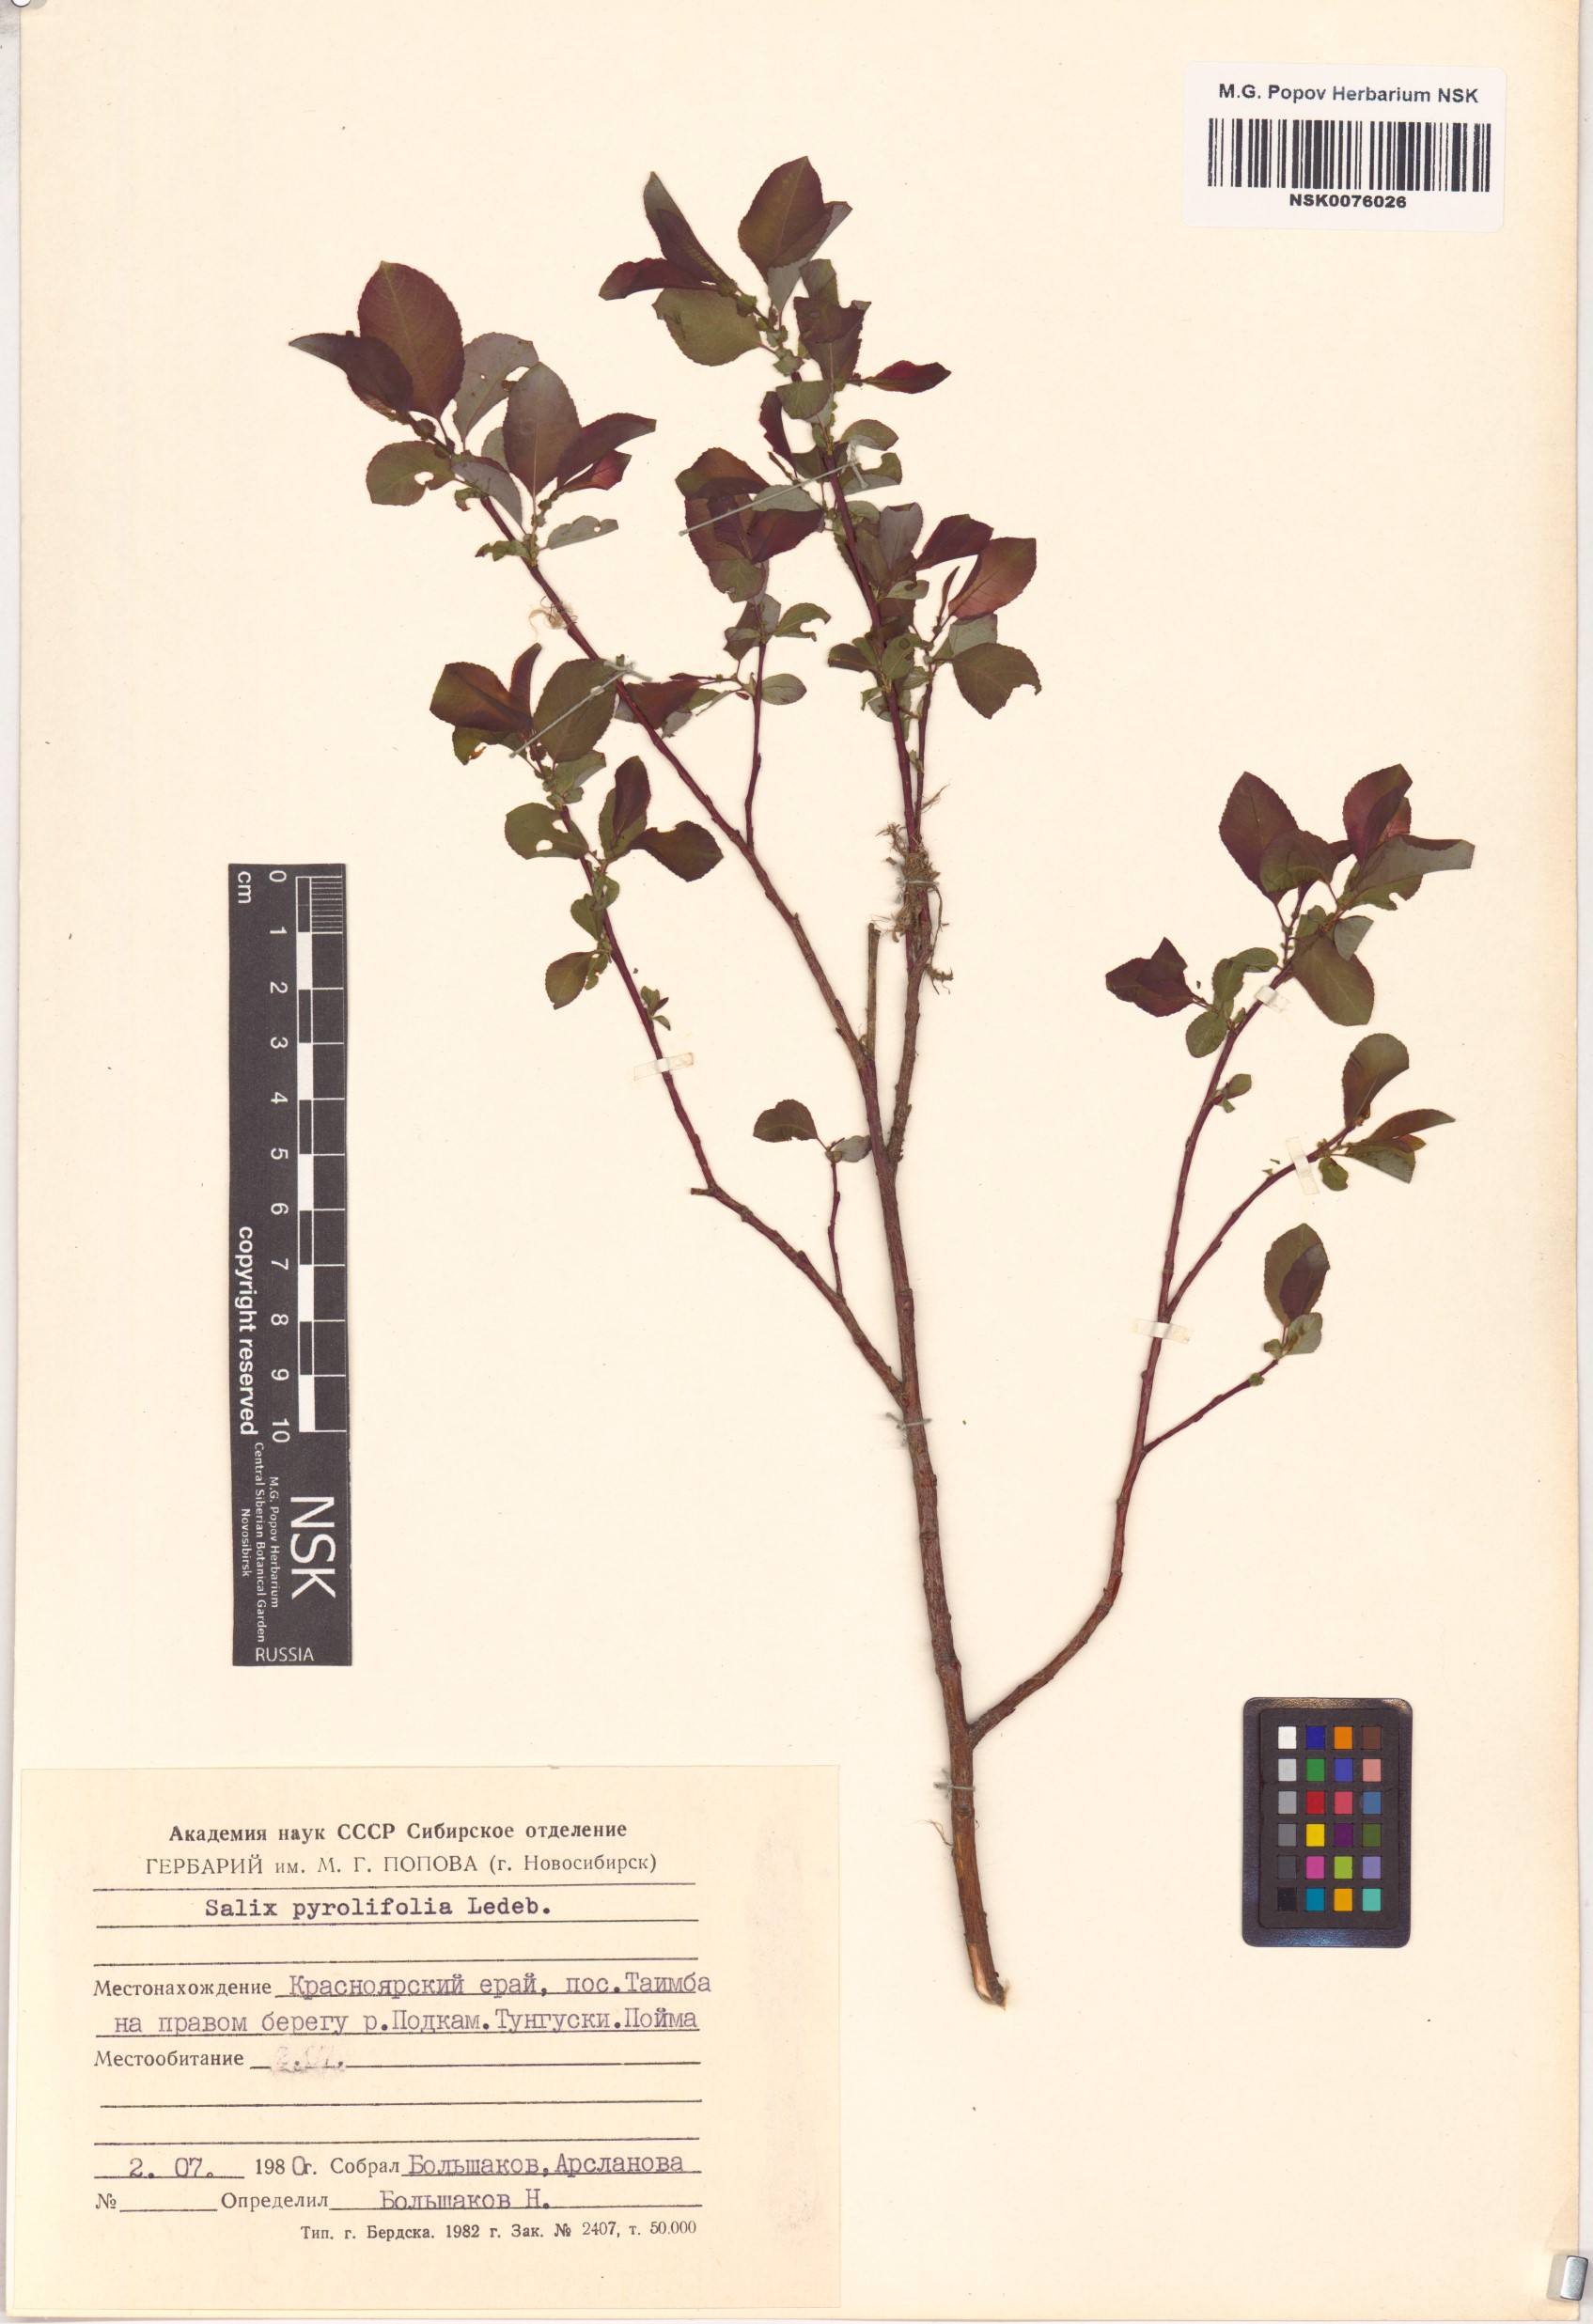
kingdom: Plantae
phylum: Tracheophyta
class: Magnoliopsida
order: Malpighiales
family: Salicaceae
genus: Salix
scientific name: Salix pyrolifolia
